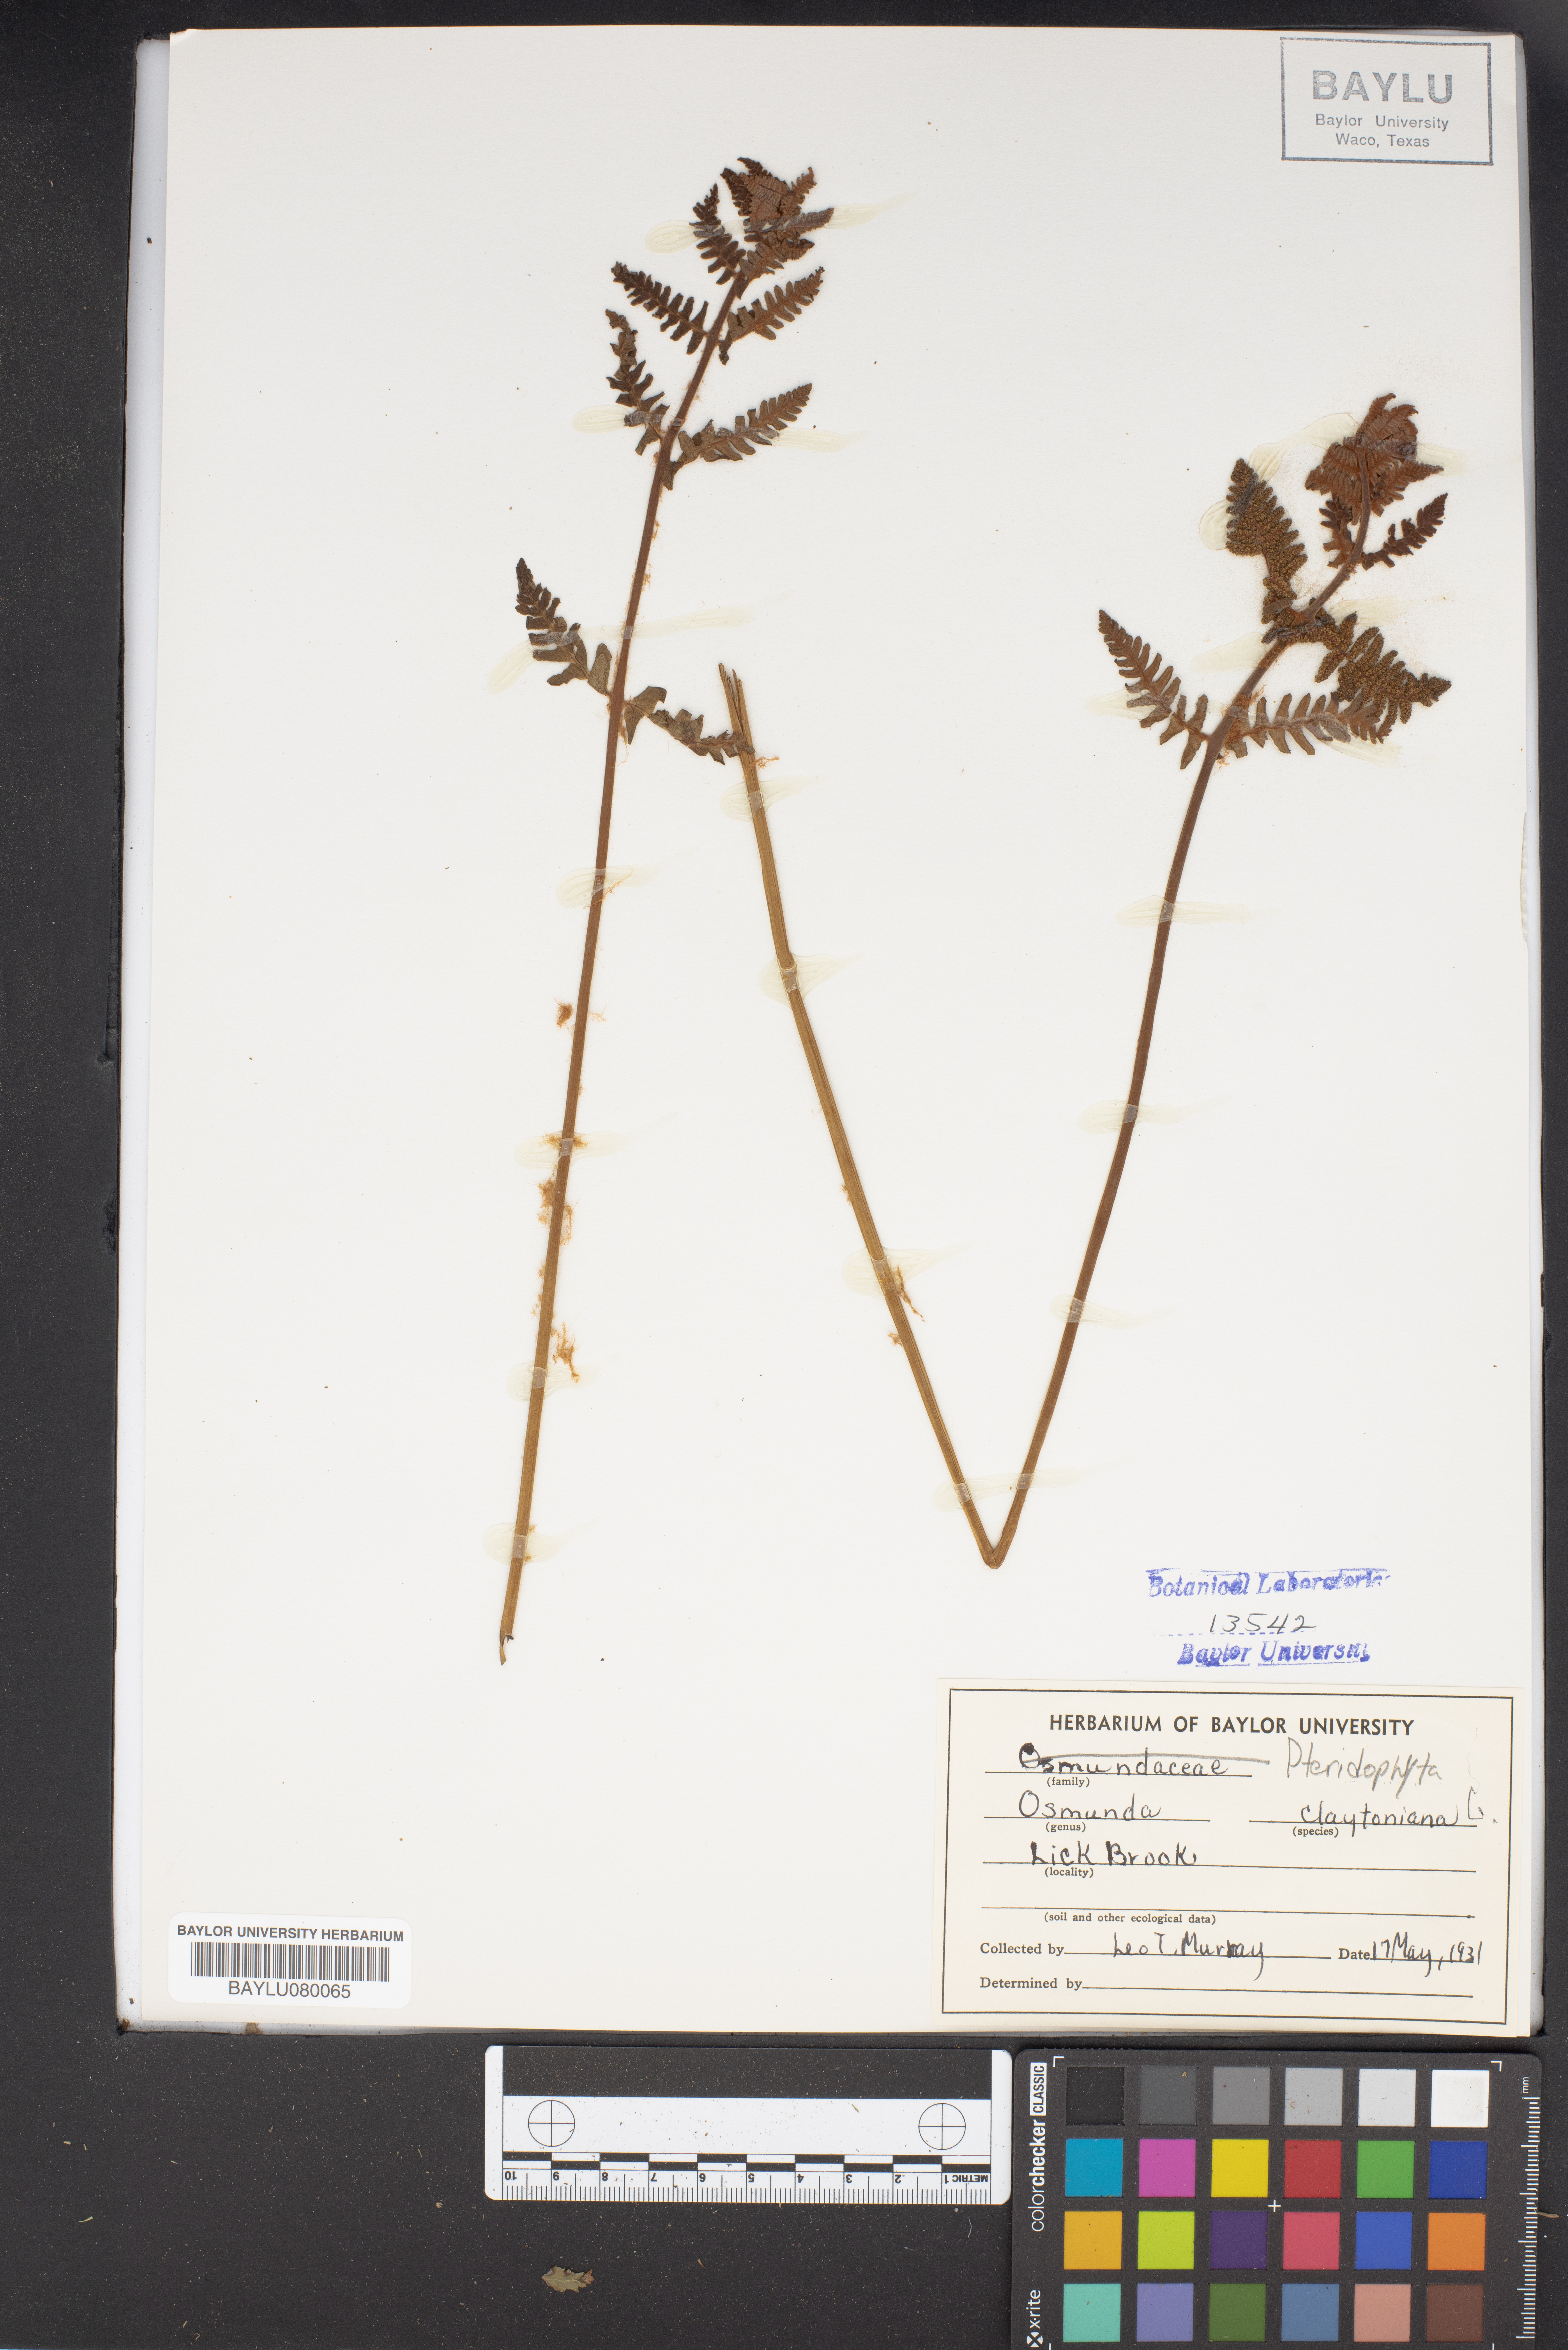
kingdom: Plantae
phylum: Tracheophyta
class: Polypodiopsida
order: Osmundales
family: Osmundaceae
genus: Claytosmunda
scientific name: Claytosmunda claytoniana
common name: Clayton's fern
